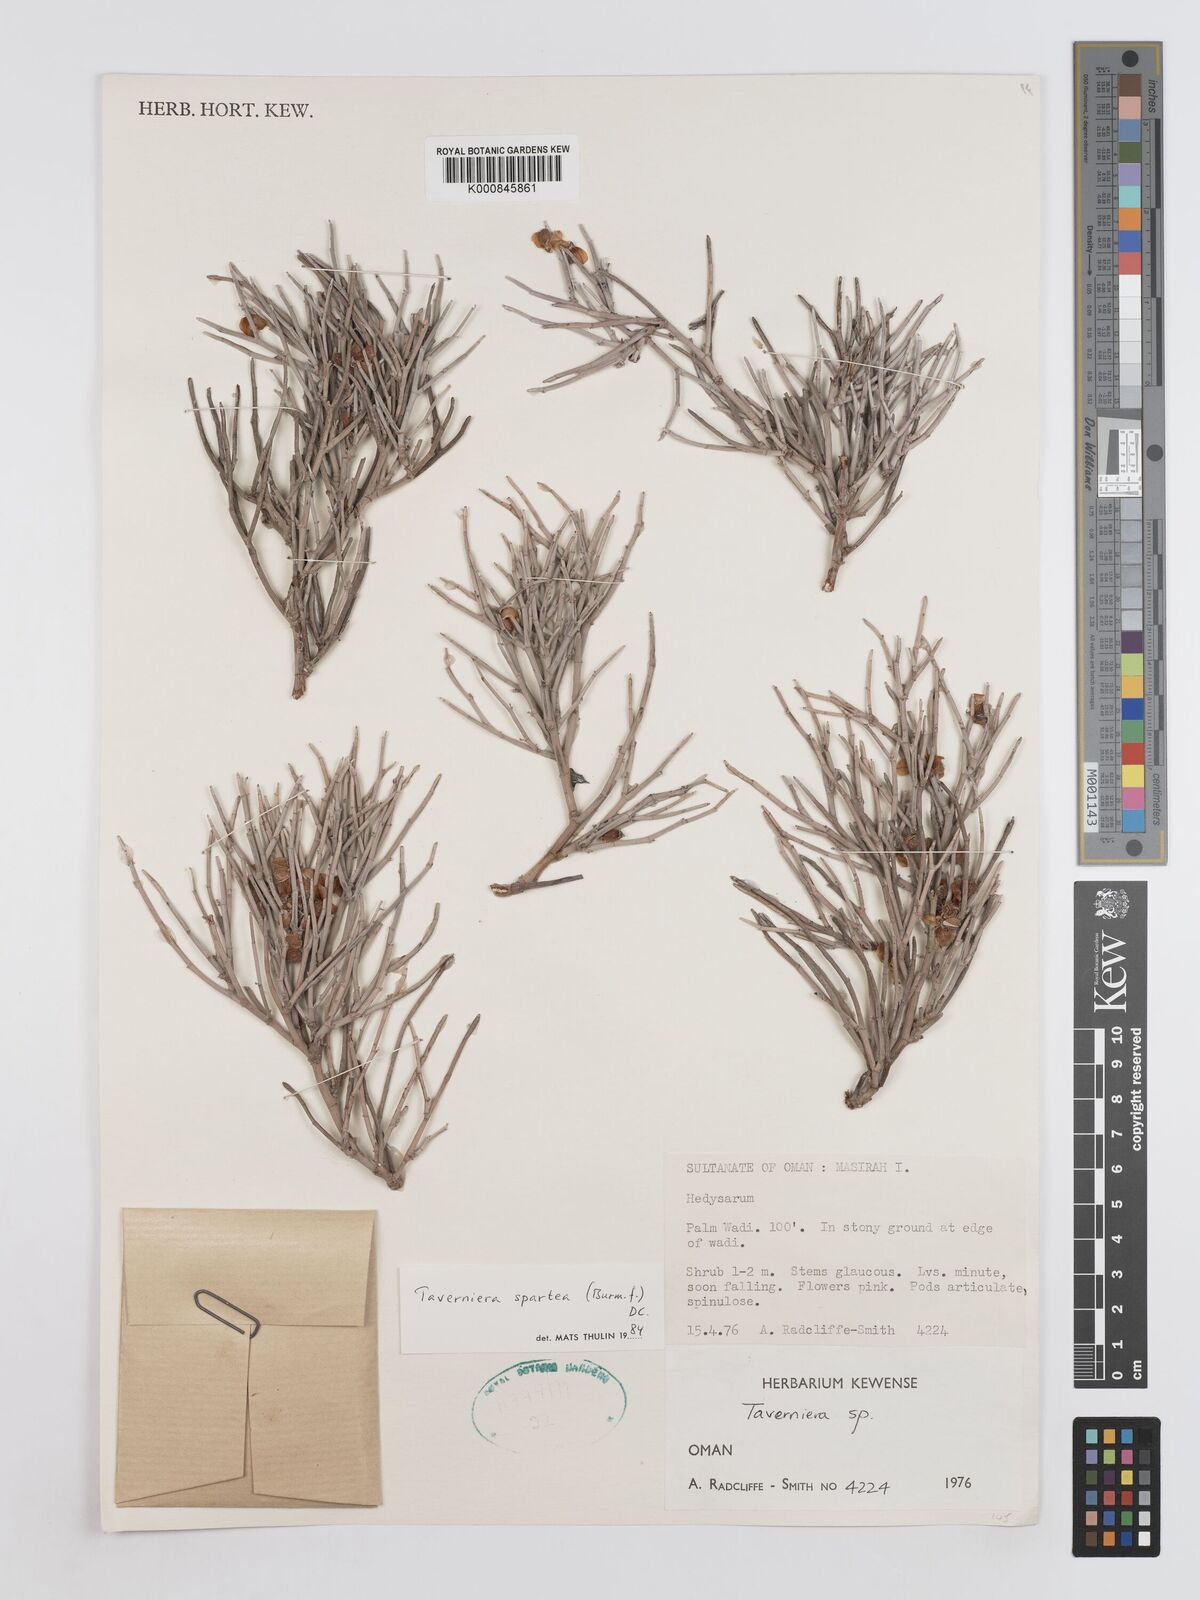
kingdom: Plantae
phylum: Tracheophyta
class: Magnoliopsida
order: Fabales
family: Fabaceae
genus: Taverniera
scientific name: Taverniera spartea
